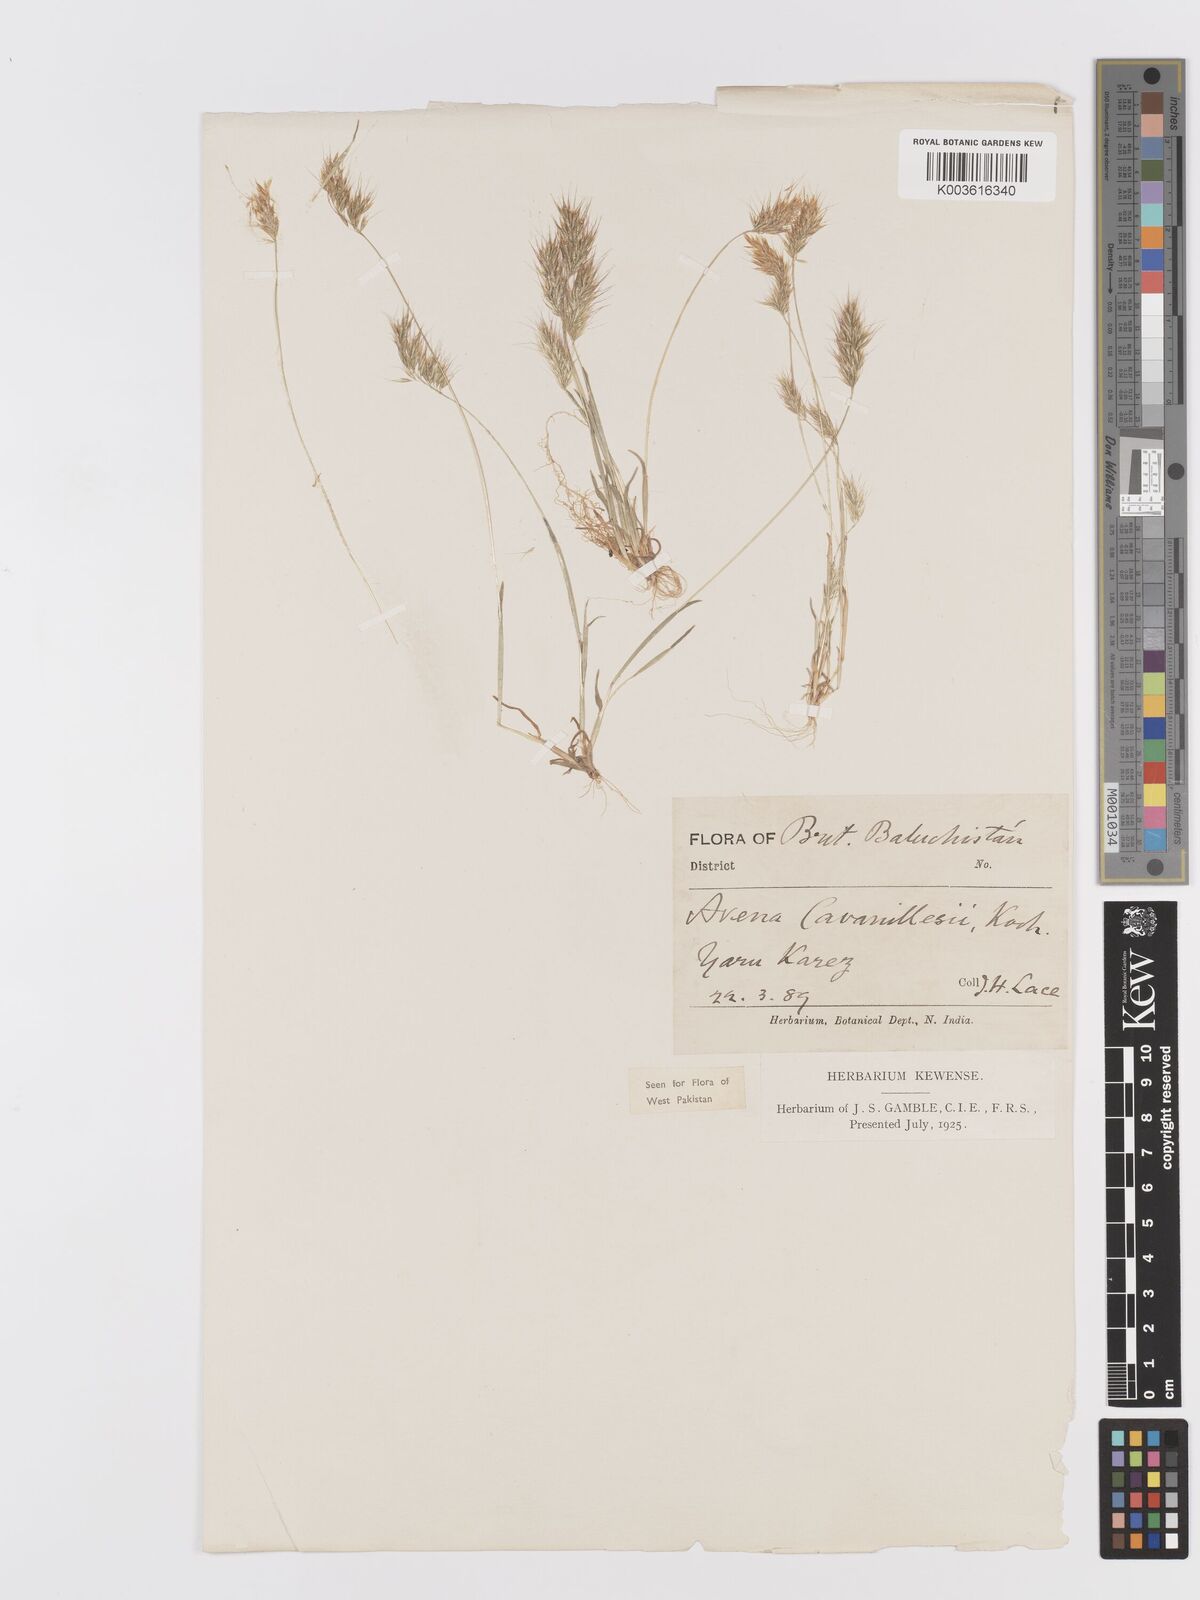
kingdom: Plantae
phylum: Tracheophyta
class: Liliopsida
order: Poales
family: Poaceae
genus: Trisetaria
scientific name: Trisetaria loeflingiana
